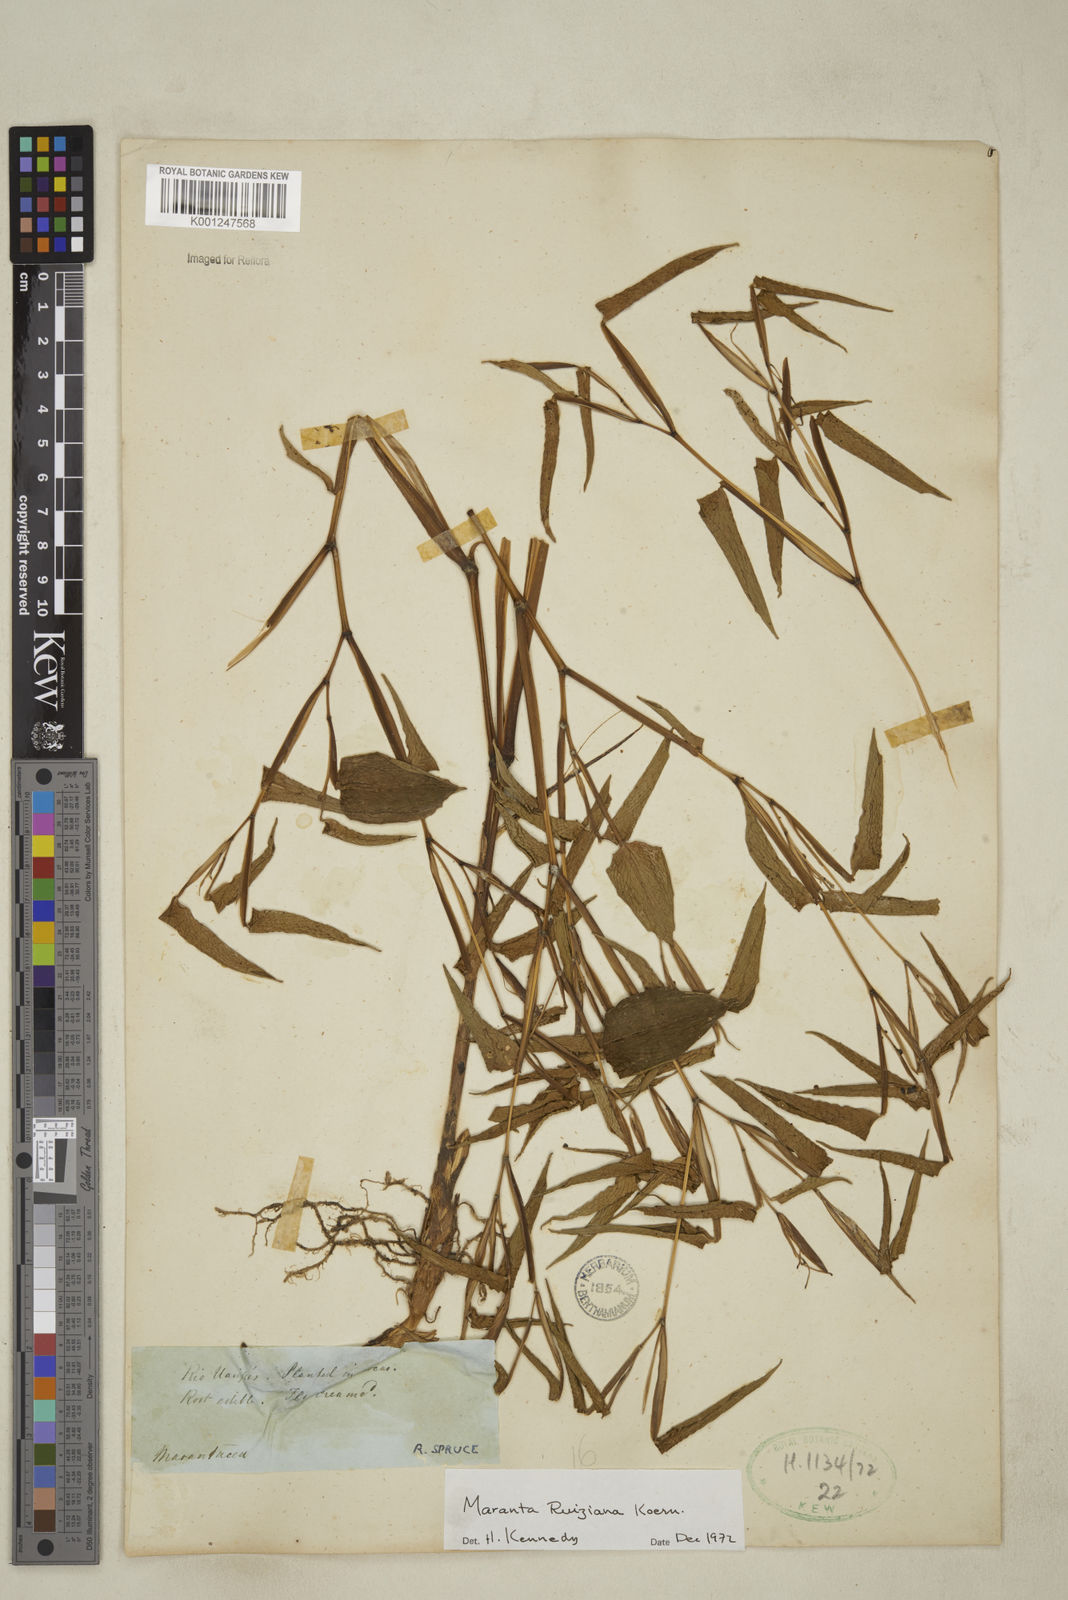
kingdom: Plantae
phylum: Tracheophyta
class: Liliopsida
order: Zingiberales
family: Marantaceae
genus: Maranta
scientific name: Maranta ruiziana
